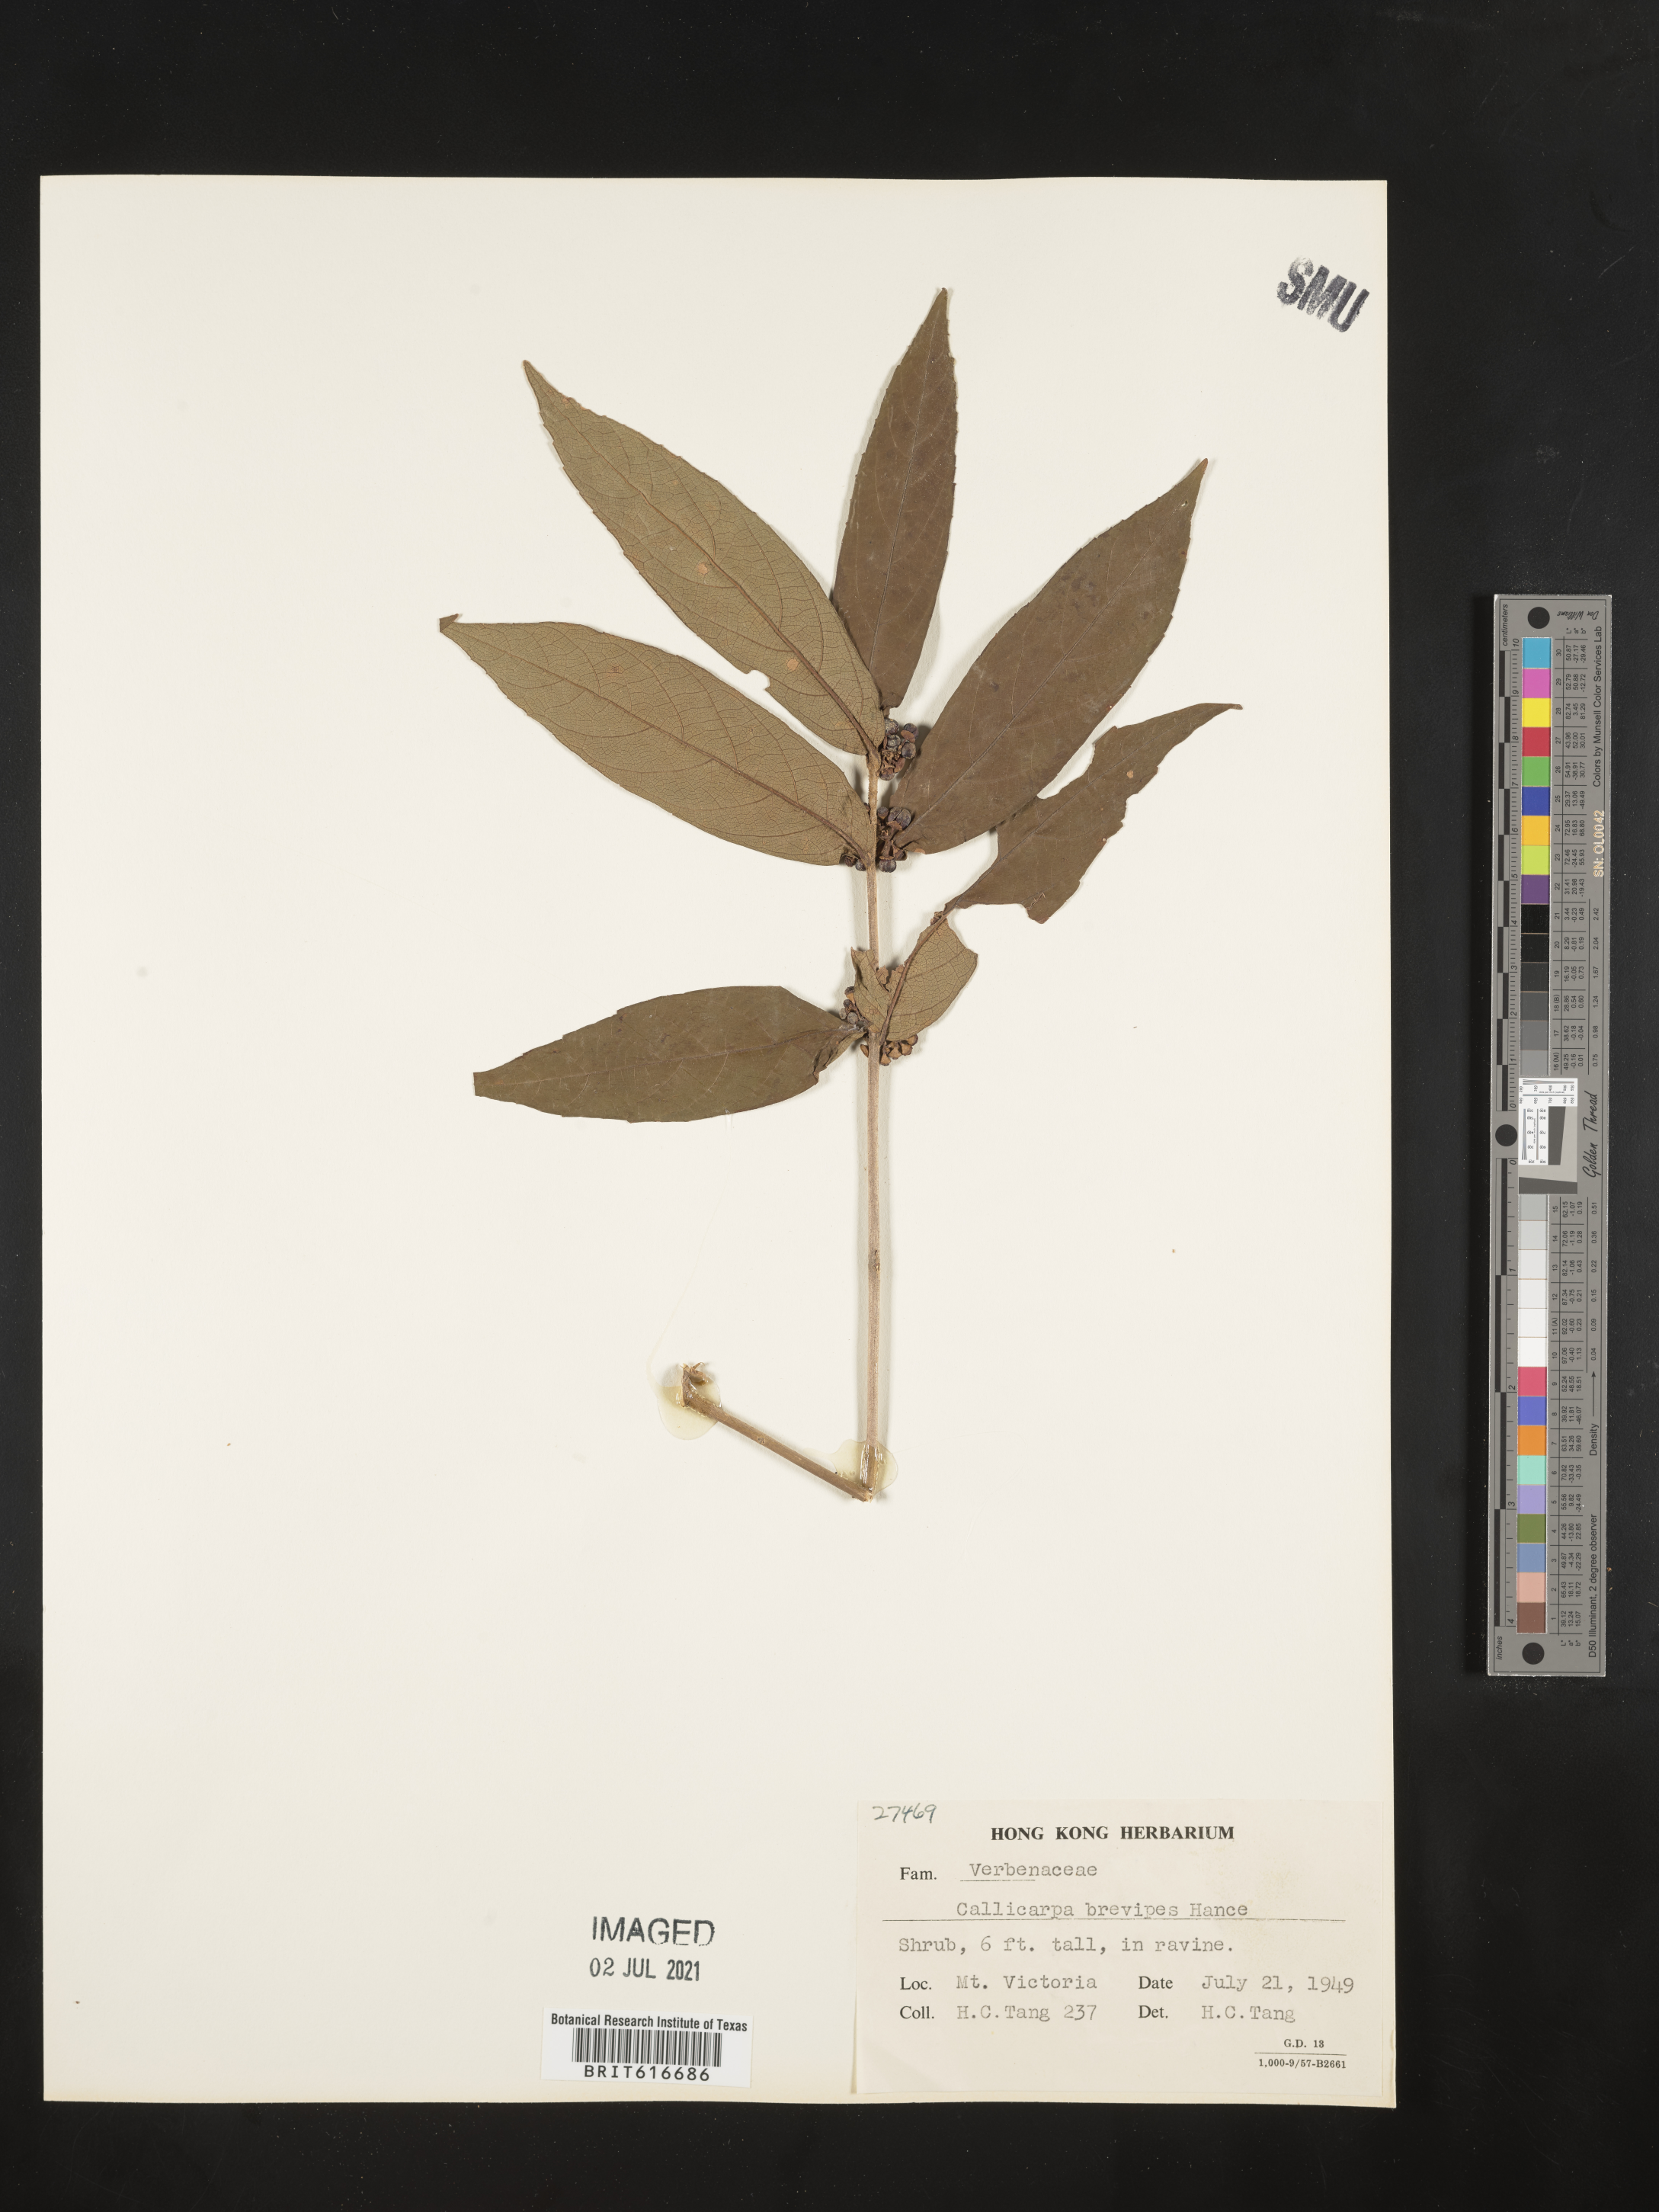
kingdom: Plantae
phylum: Tracheophyta
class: Magnoliopsida
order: Lamiales
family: Lamiaceae
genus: Callicarpa
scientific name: Callicarpa brevipes
